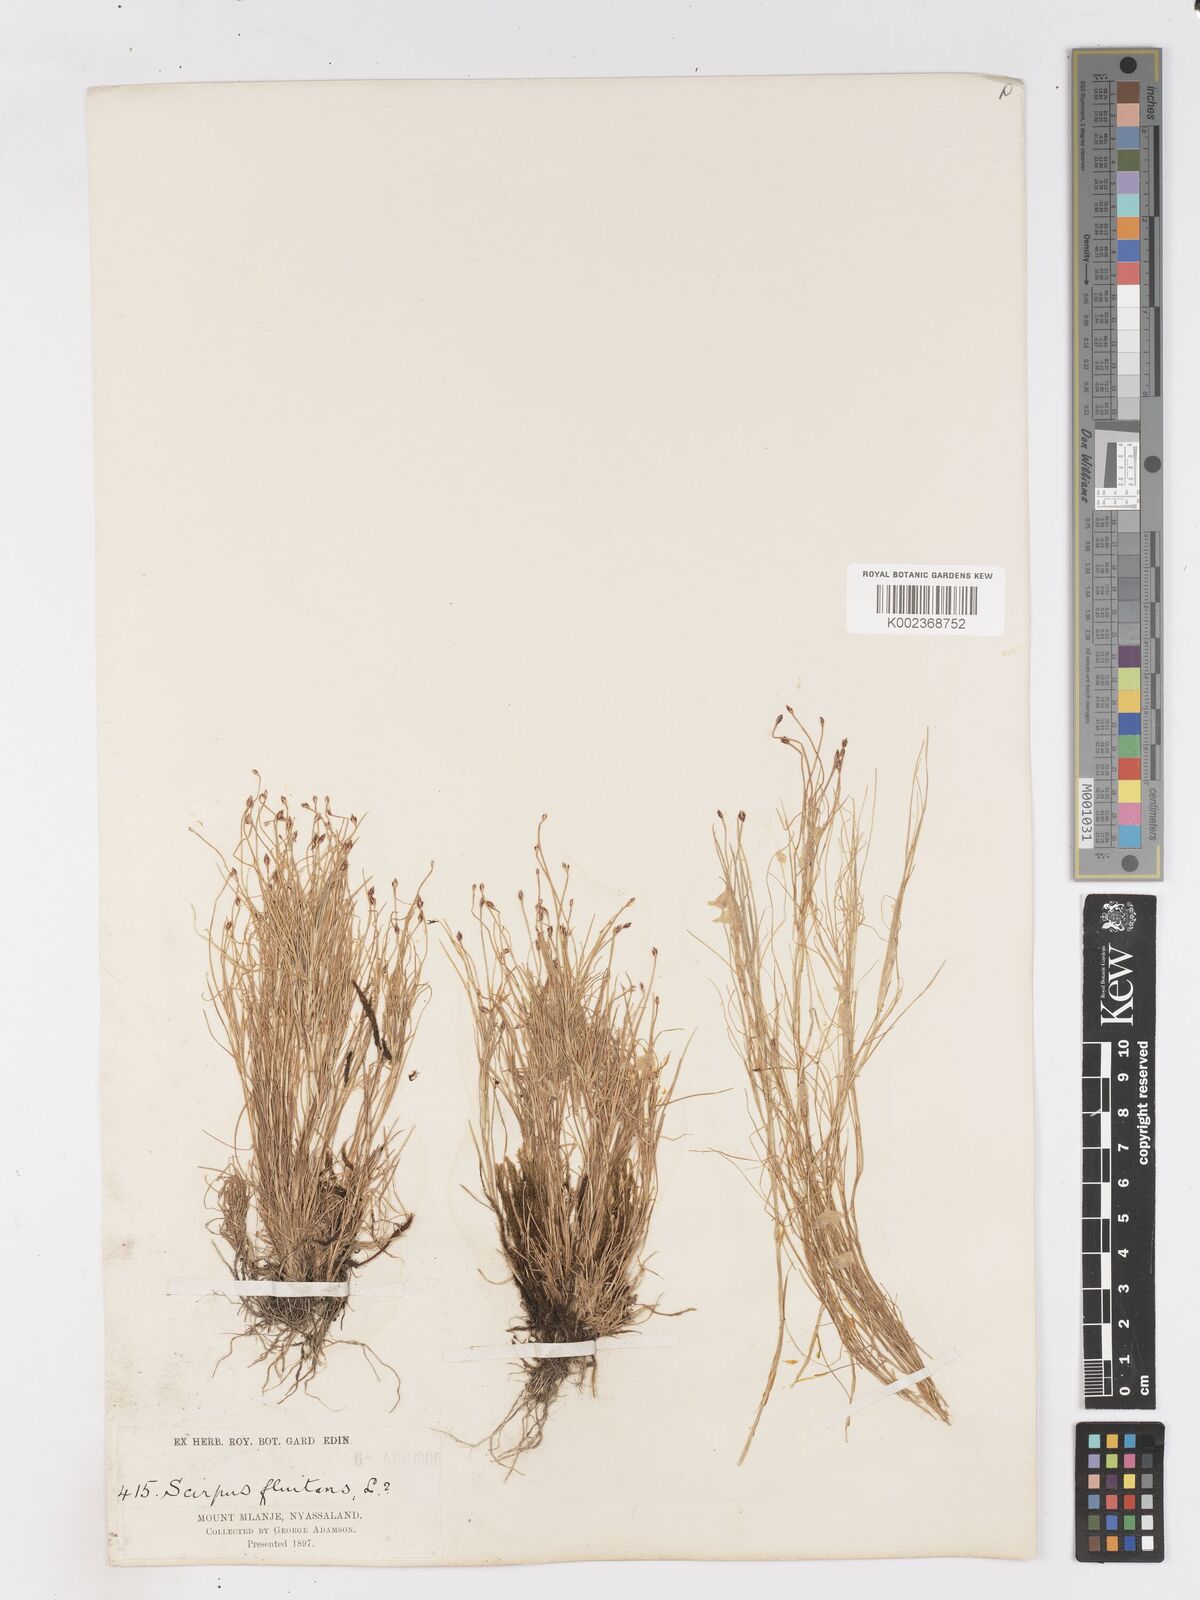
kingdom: Plantae
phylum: Tracheophyta
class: Liliopsida
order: Poales
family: Cyperaceae
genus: Isolepis
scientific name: Isolepis fluitans
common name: Floating club-rush
